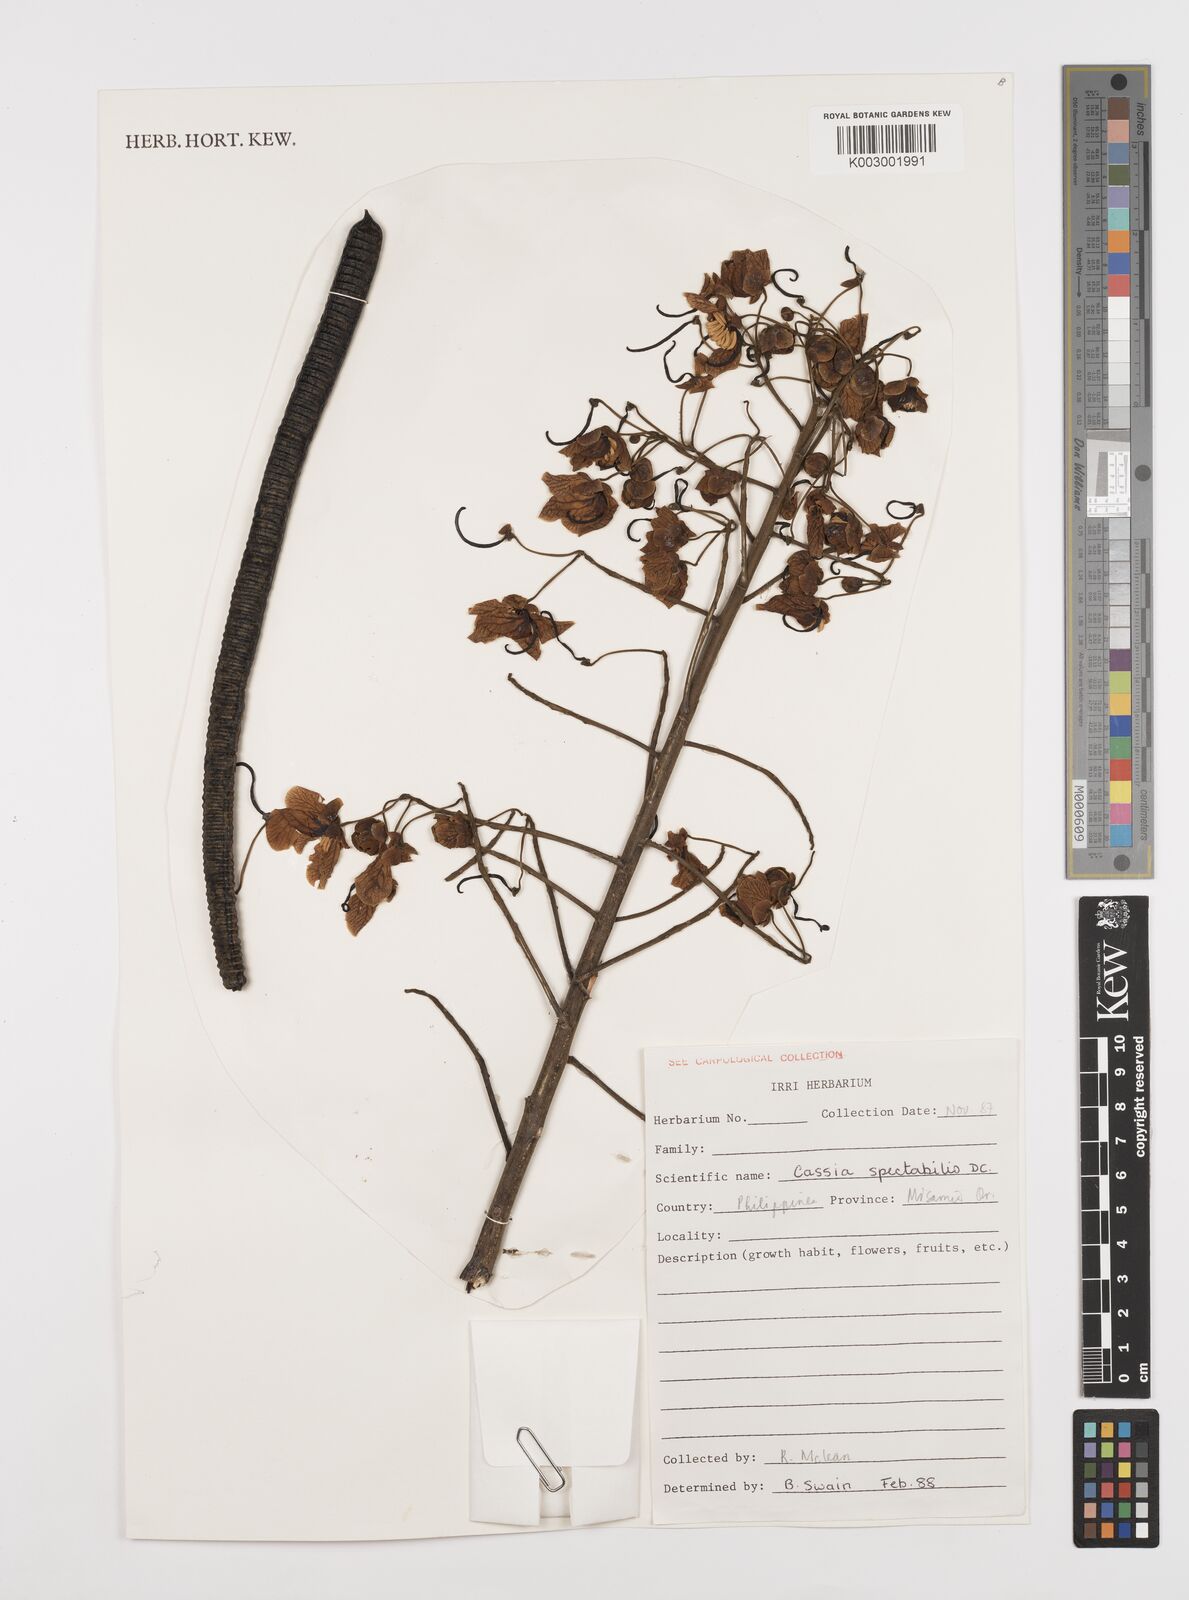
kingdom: Plantae
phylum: Tracheophyta
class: Magnoliopsida
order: Fabales
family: Fabaceae
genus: Senna
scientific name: Senna spectabilis
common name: Casia amarilla
